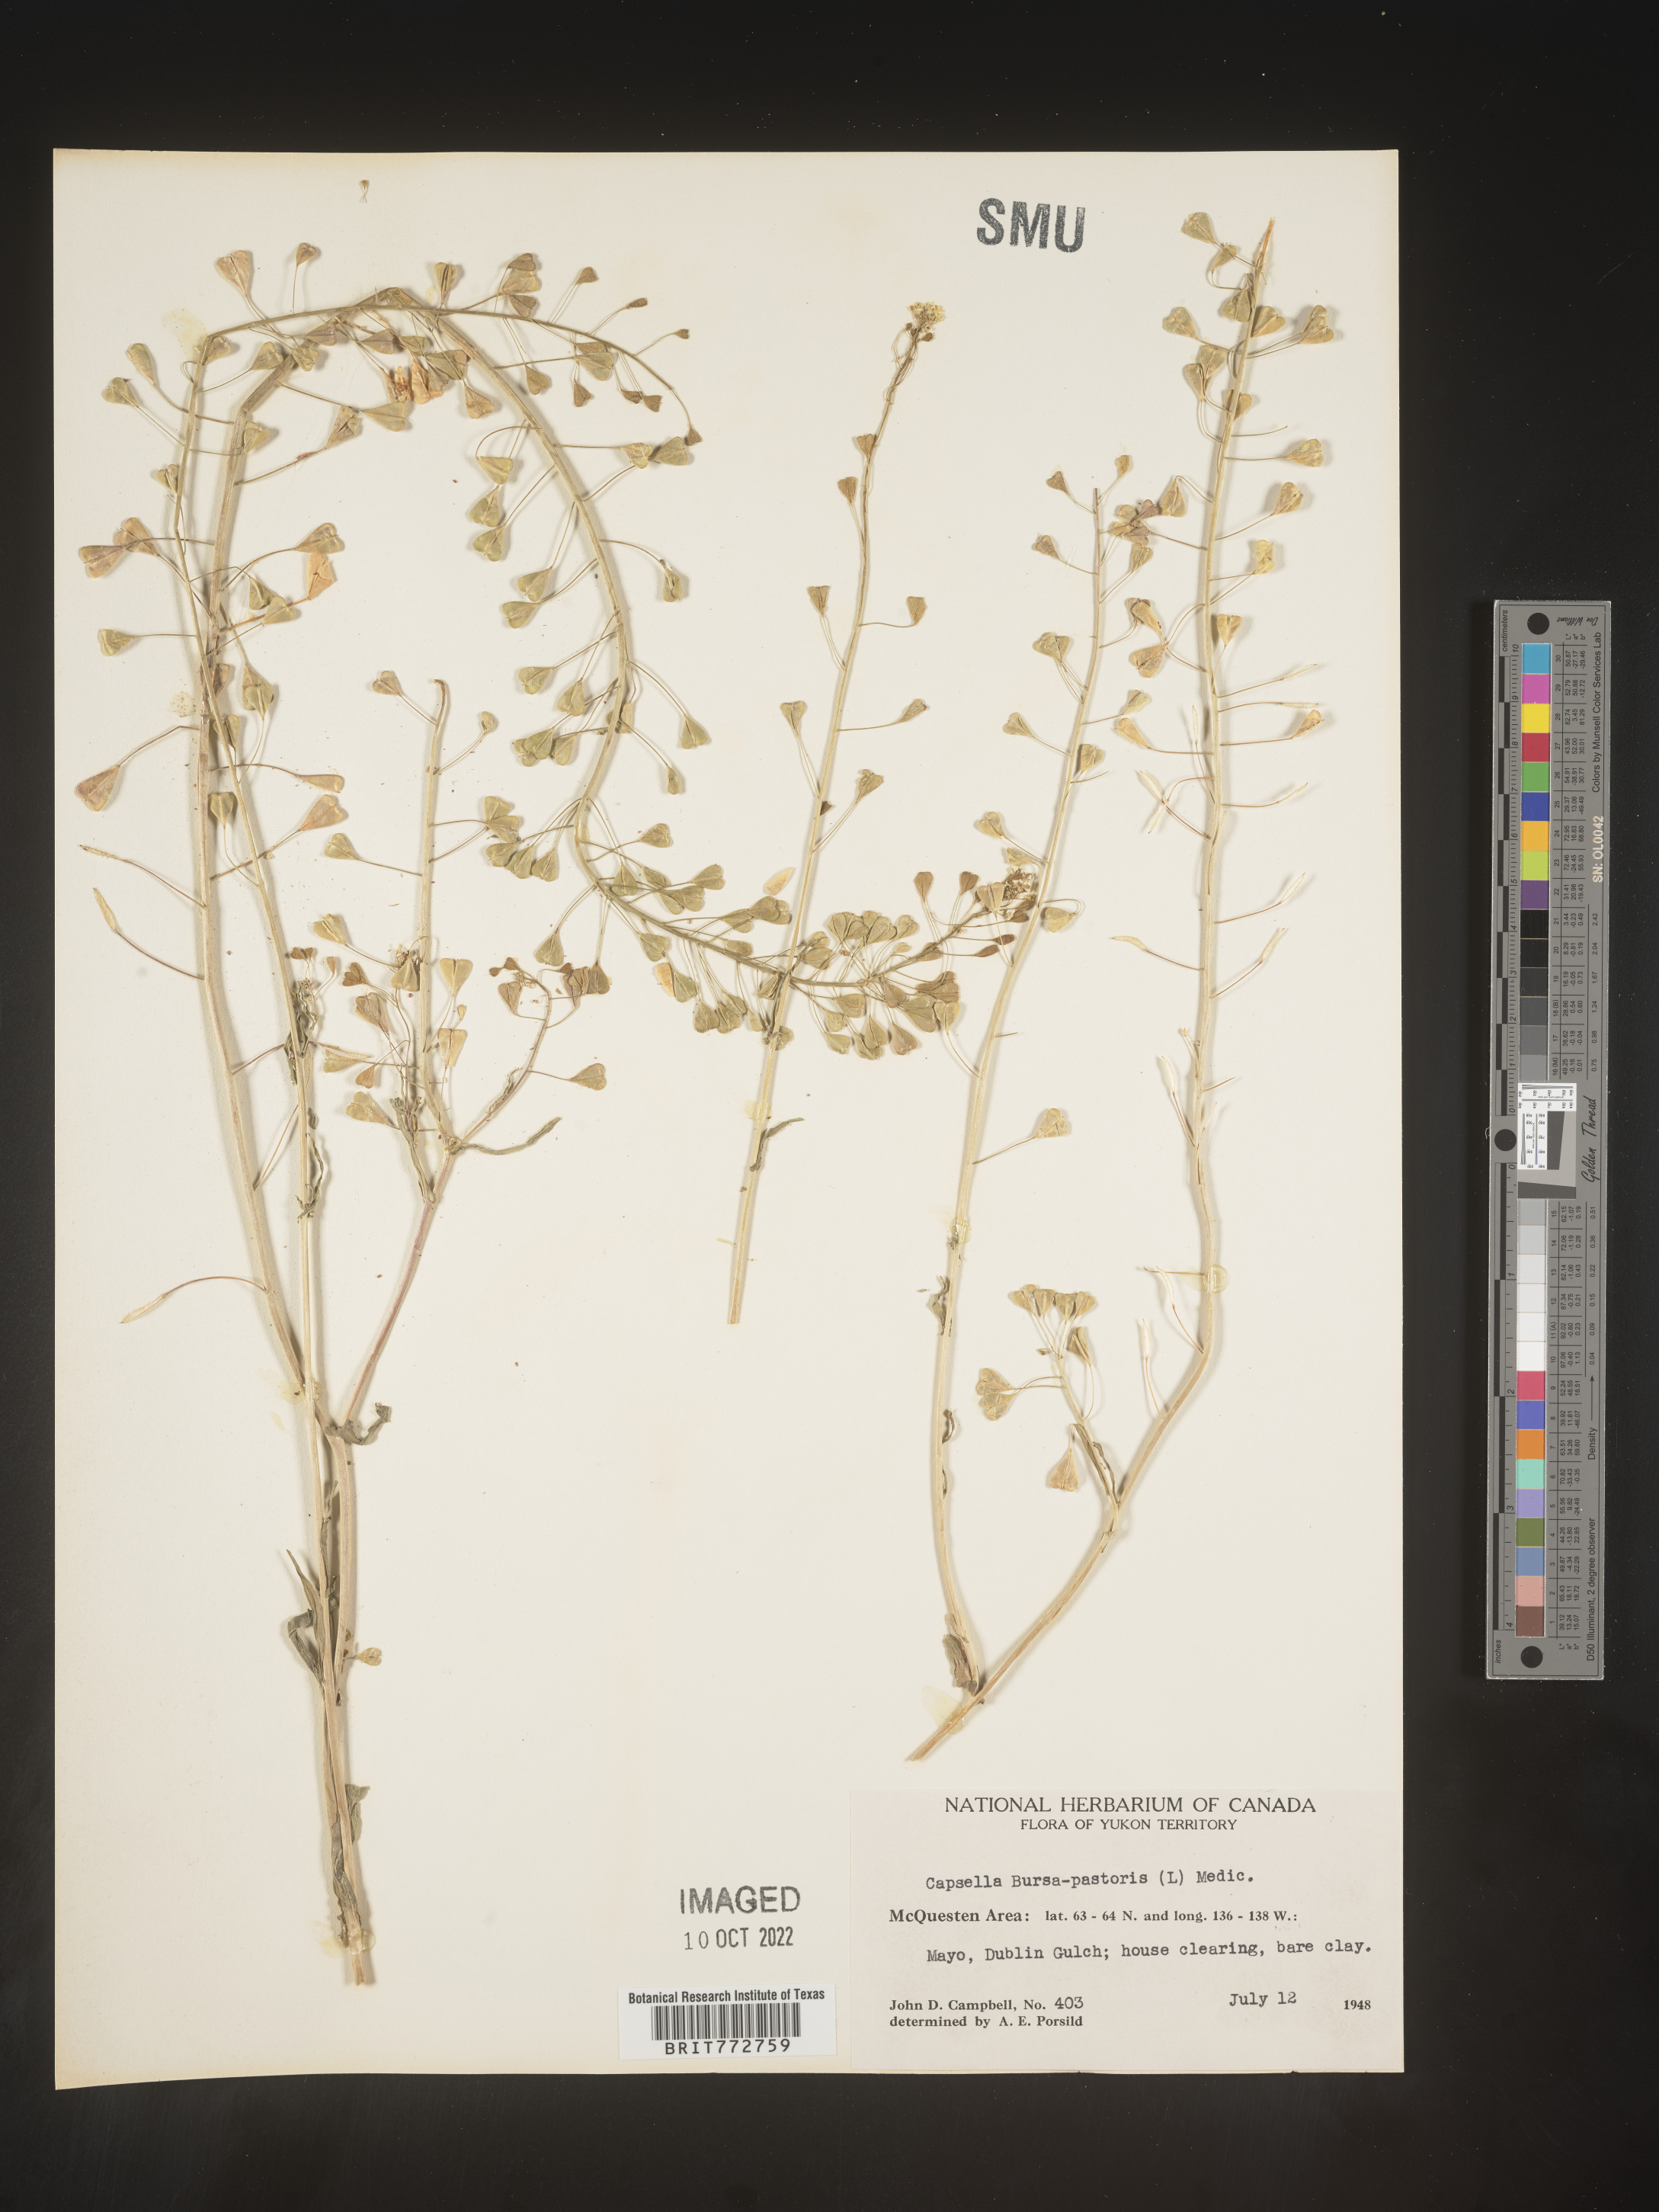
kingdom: Plantae
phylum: Tracheophyta
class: Magnoliopsida
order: Brassicales
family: Brassicaceae
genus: Capsella
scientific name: Capsella bursa-pastoris
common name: Shepherd's purse
